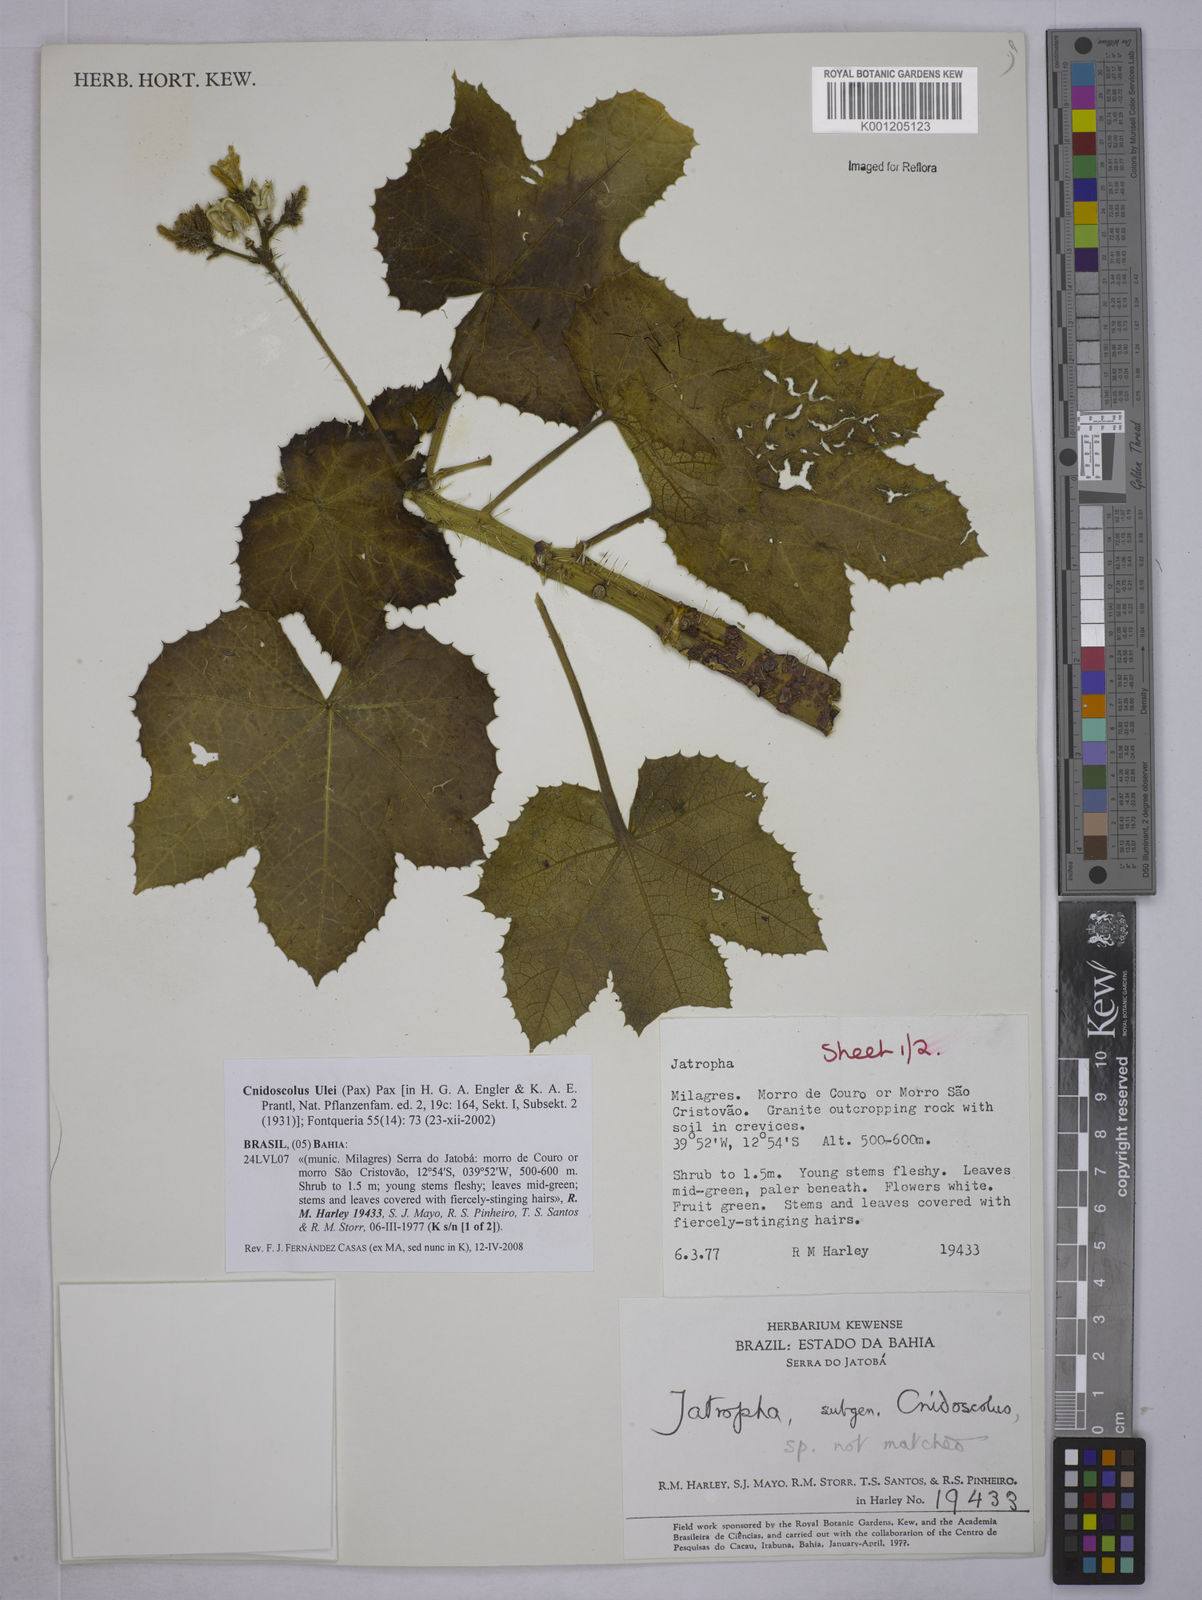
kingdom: Plantae
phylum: Tracheophyta
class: Magnoliopsida
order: Malpighiales
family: Euphorbiaceae
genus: Cnidoscolus
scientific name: Cnidoscolus ulei
